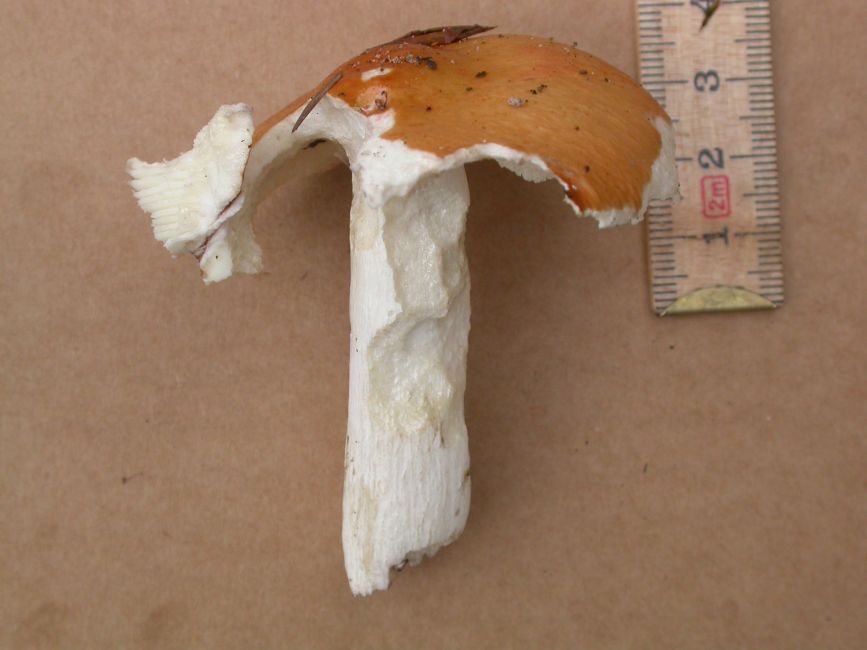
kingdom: Fungi
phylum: Basidiomycota
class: Agaricomycetes
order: Russulales
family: Russulaceae
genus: Russula
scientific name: Russula decolorans
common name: afblegende skørhat
